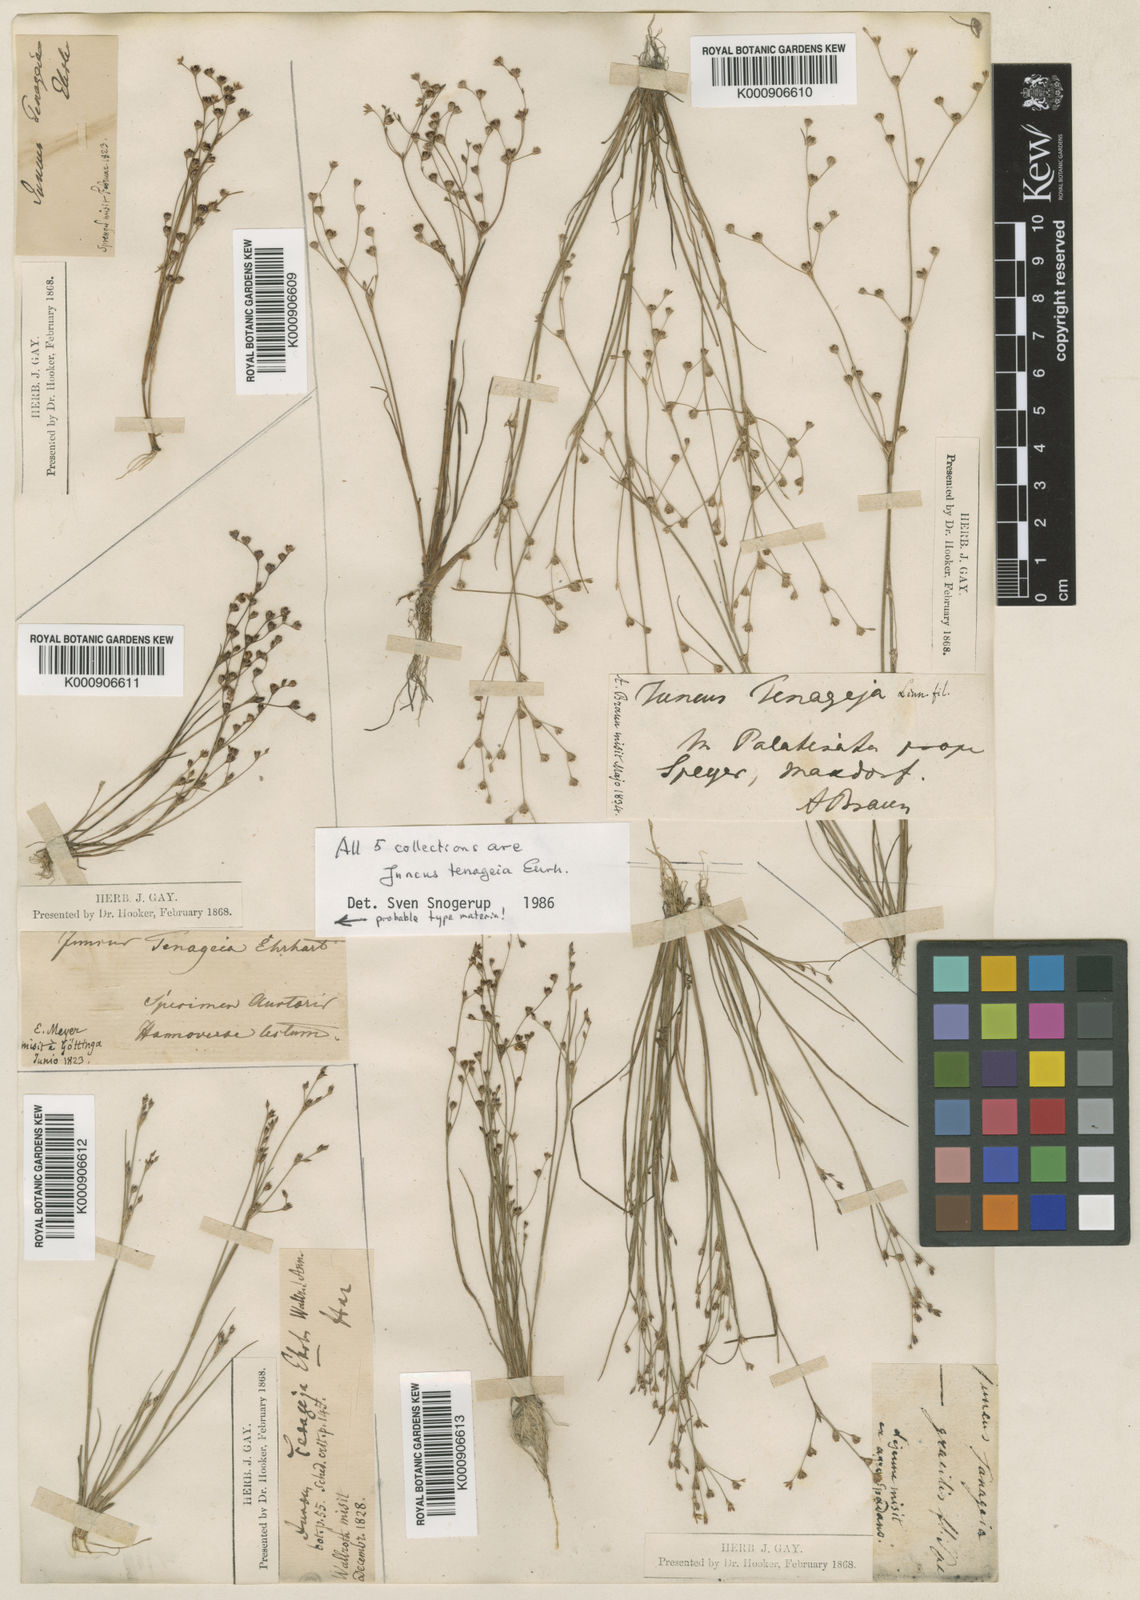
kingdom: Plantae
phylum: Tracheophyta
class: Liliopsida
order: Poales
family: Juncaceae
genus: Juncus
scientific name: Juncus tenageia
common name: Sand rush
